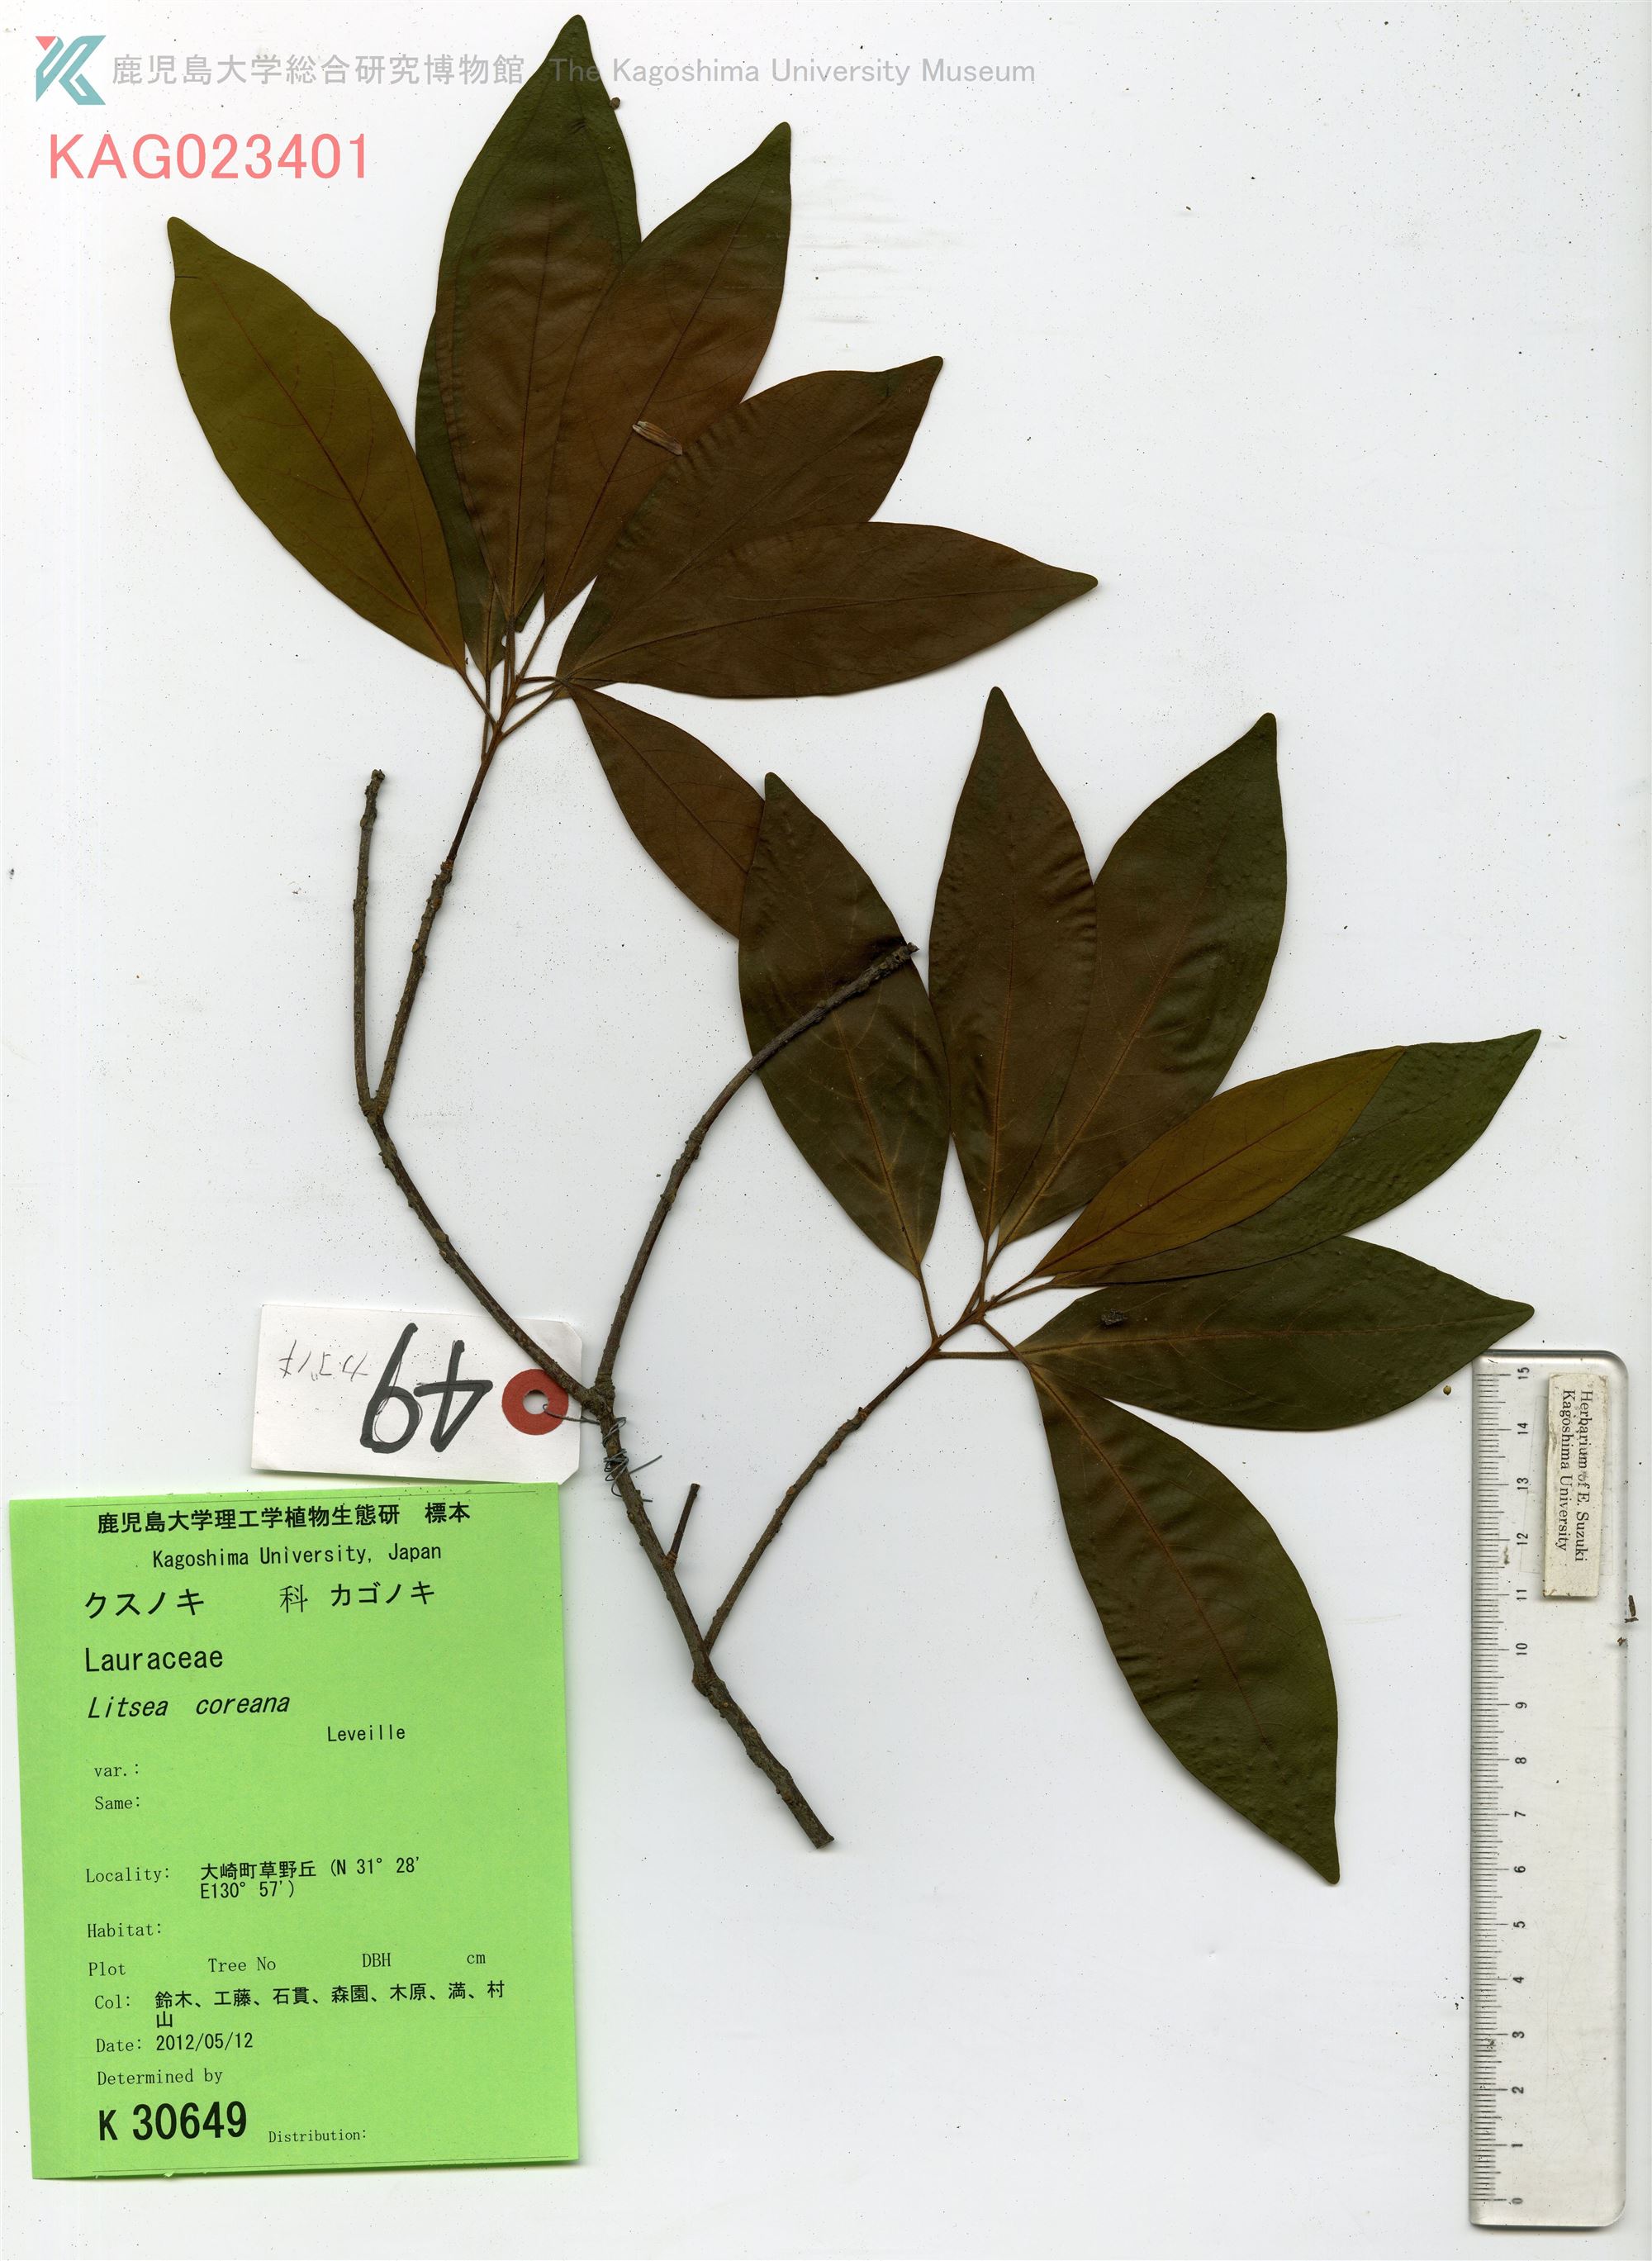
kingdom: Plantae
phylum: Tracheophyta
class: Magnoliopsida
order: Laurales
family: Lauraceae
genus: Litsea
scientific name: Litsea coreana
